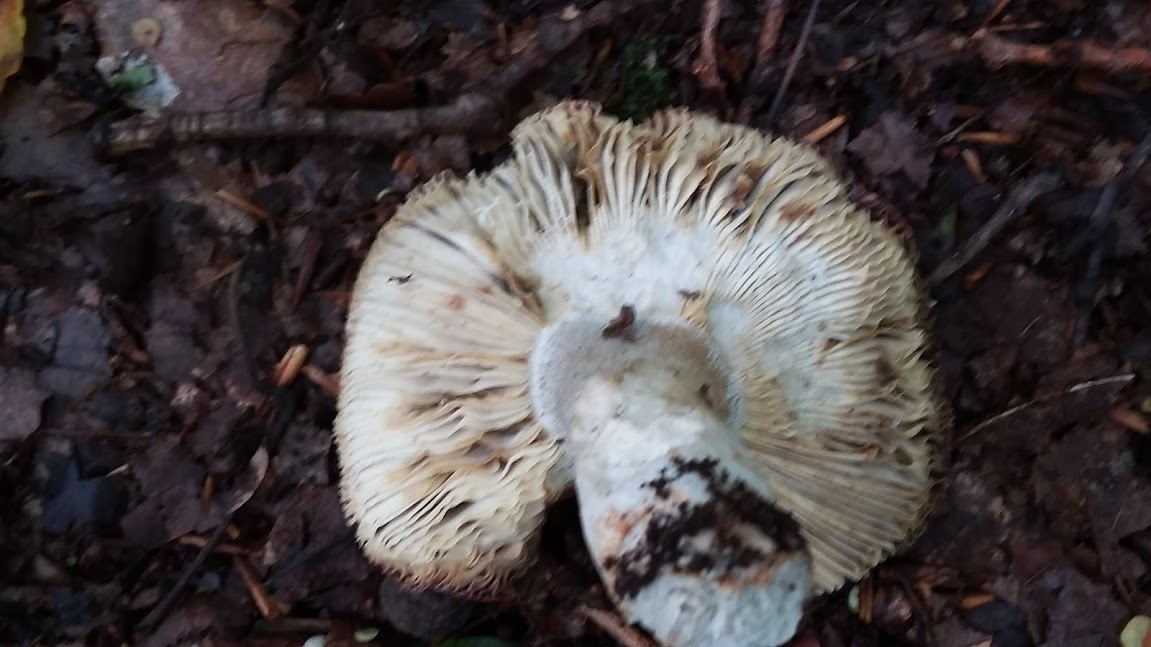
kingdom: Fungi
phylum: Basidiomycota
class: Agaricomycetes
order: Russulales
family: Russulaceae
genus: Russula
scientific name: Russula atropurpurea
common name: purpurbroget skørhat
